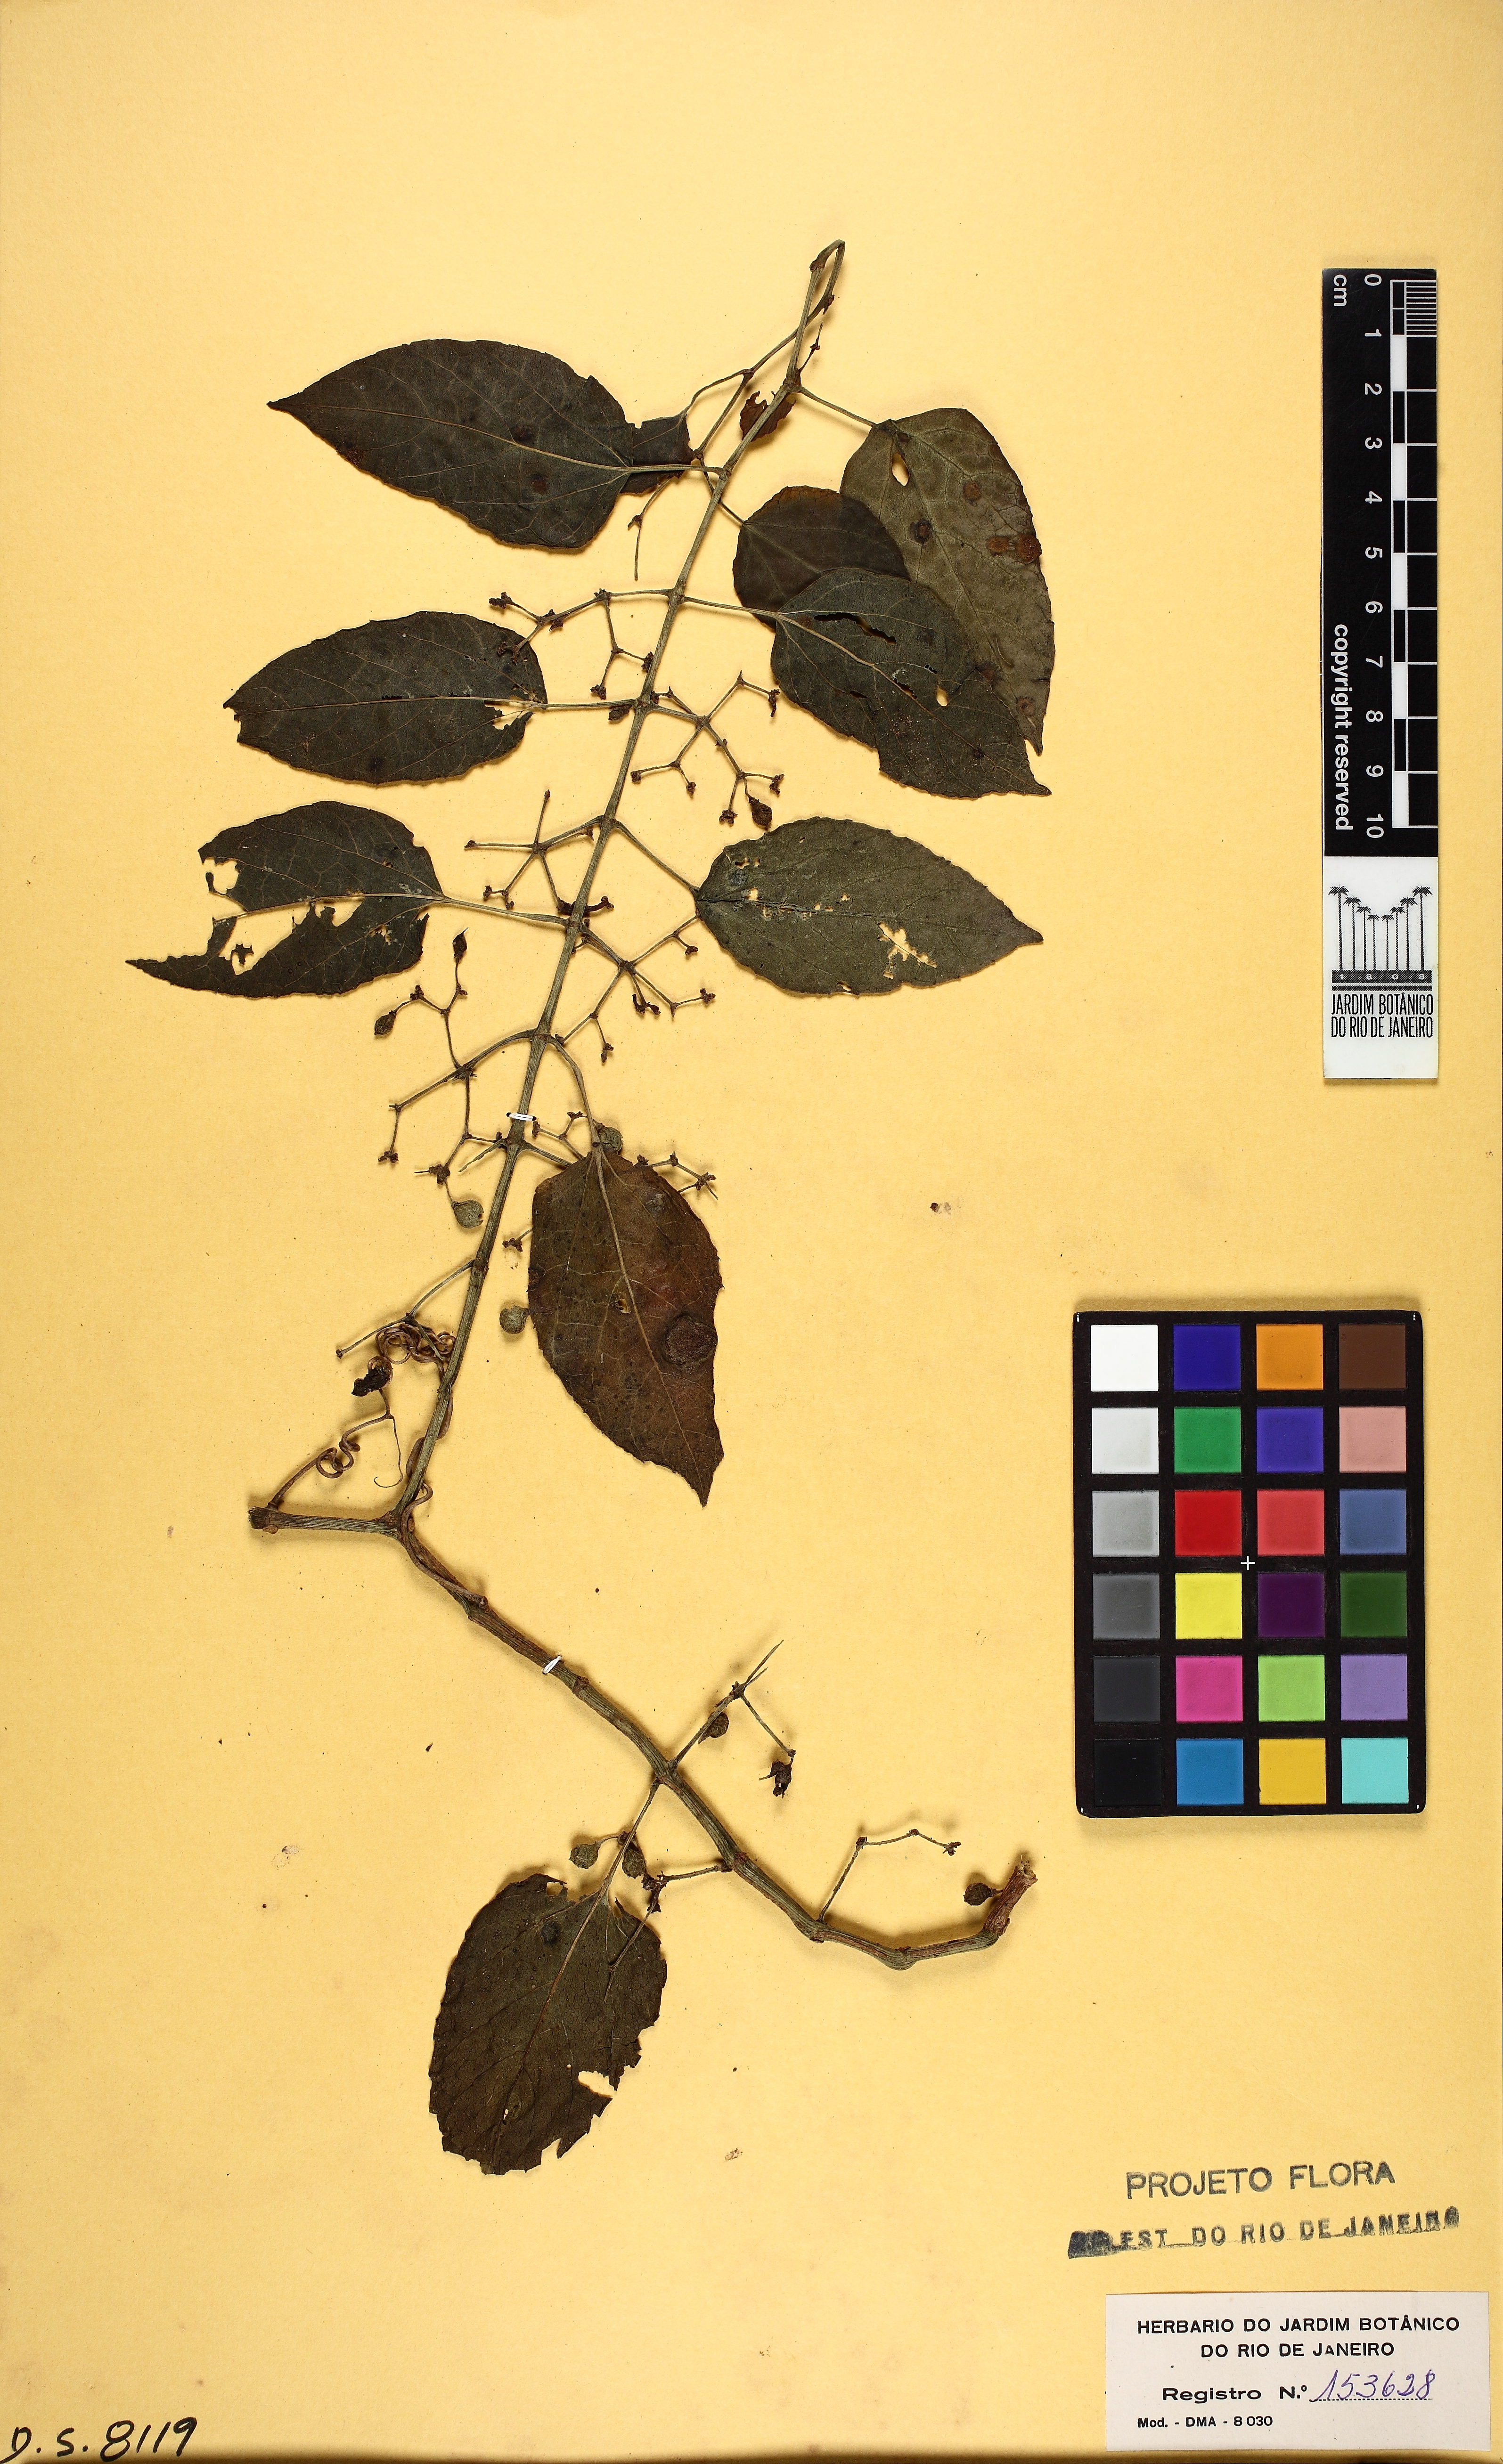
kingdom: Plantae
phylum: Tracheophyta
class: Magnoliopsida
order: Vitales
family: Vitaceae
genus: Cissus
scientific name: Cissus verticillata
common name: Princess vine
